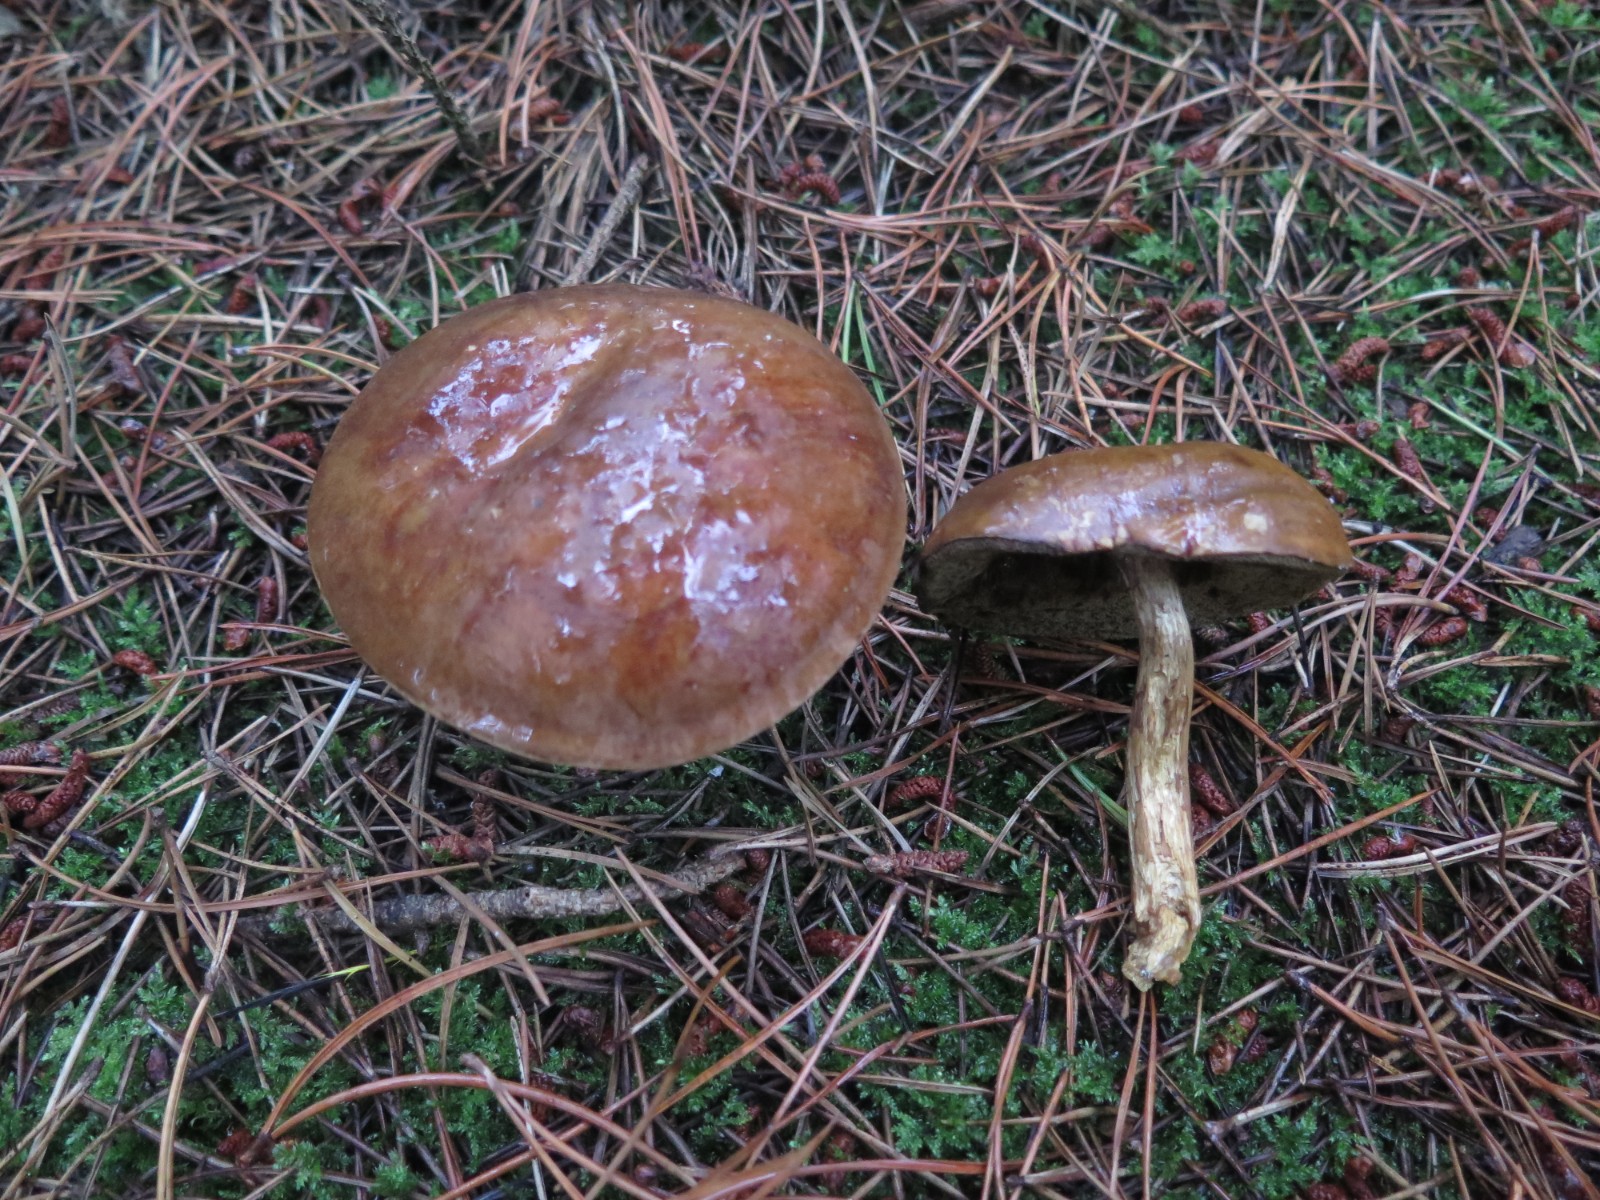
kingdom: Fungi
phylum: Basidiomycota
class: Agaricomycetes
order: Boletales
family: Boletaceae
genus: Imleria
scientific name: Imleria badia
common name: brunstokket rørhat
